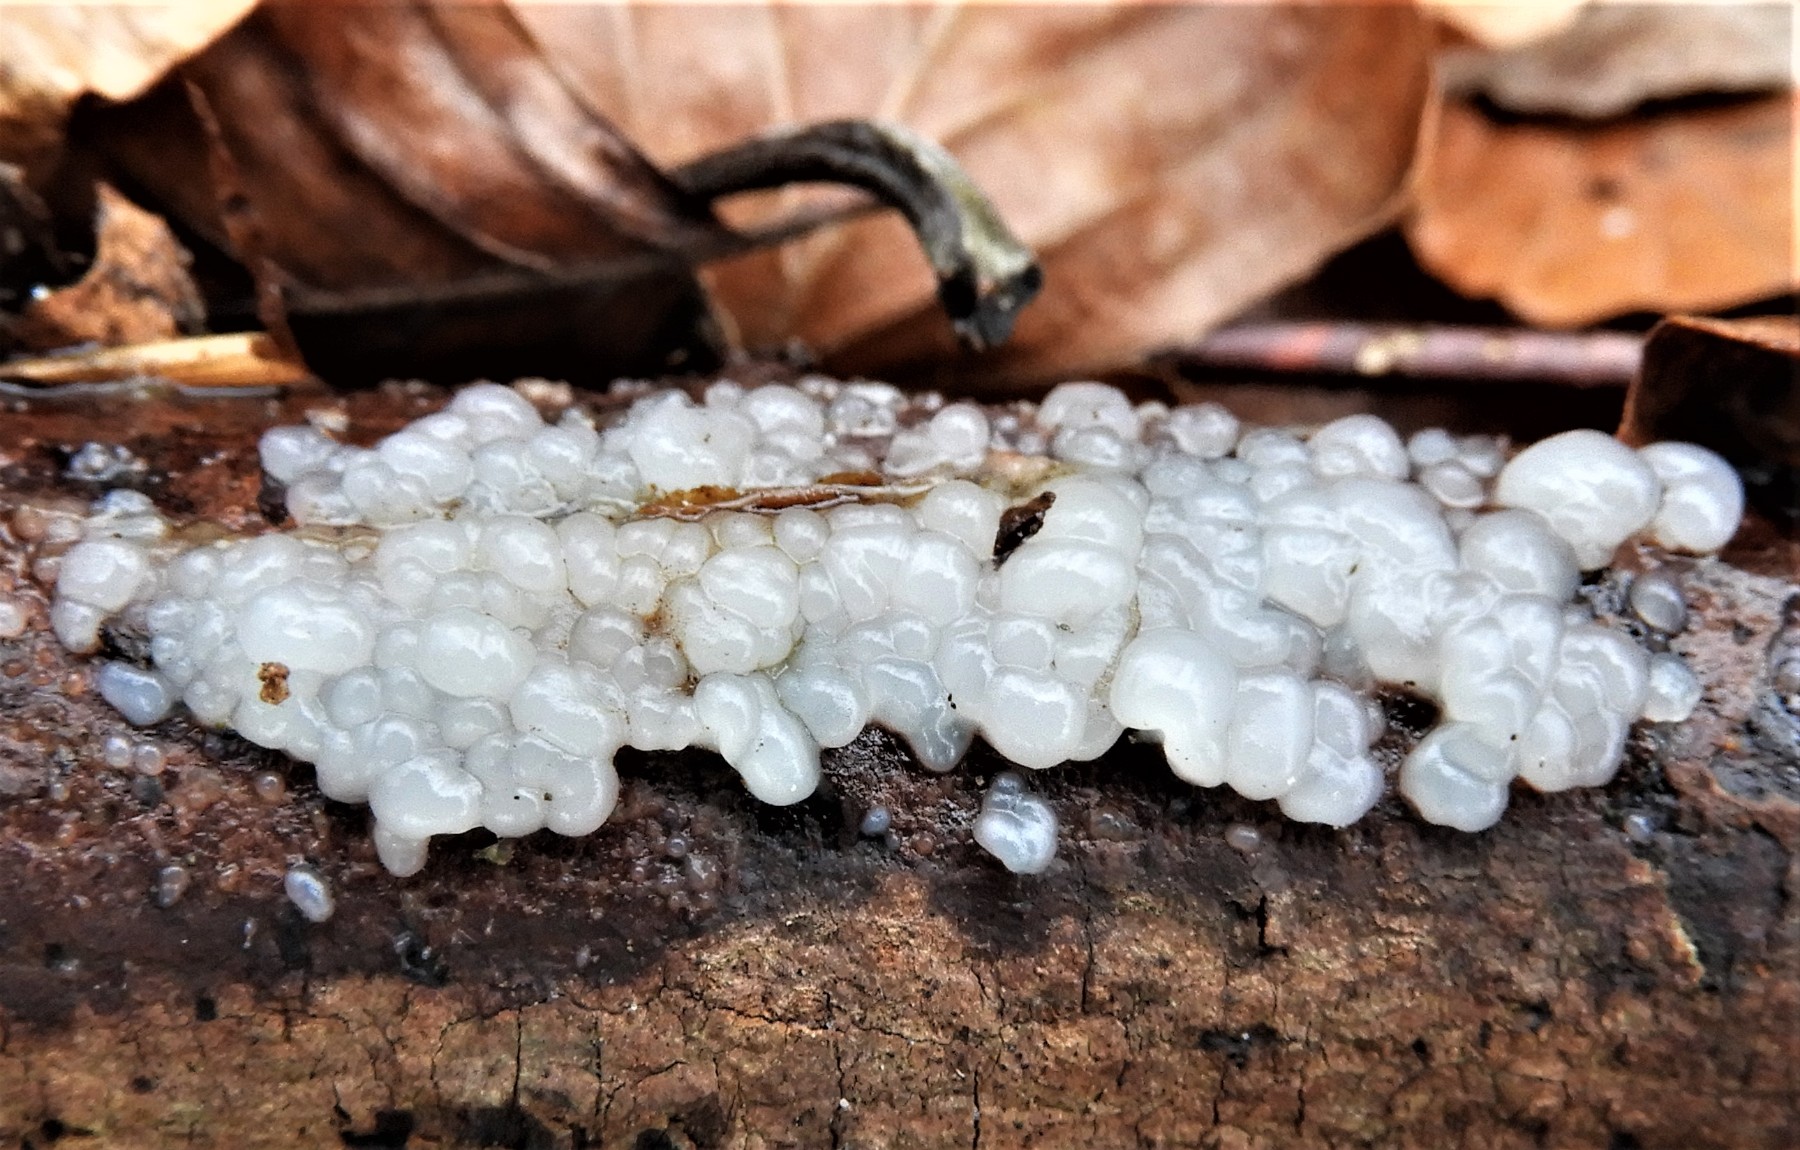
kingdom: Fungi
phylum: Basidiomycota
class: Agaricomycetes
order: Auriculariales
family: Auriculariaceae
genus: Exidia
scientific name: Exidia thuretiana
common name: hvidlig bævretop
